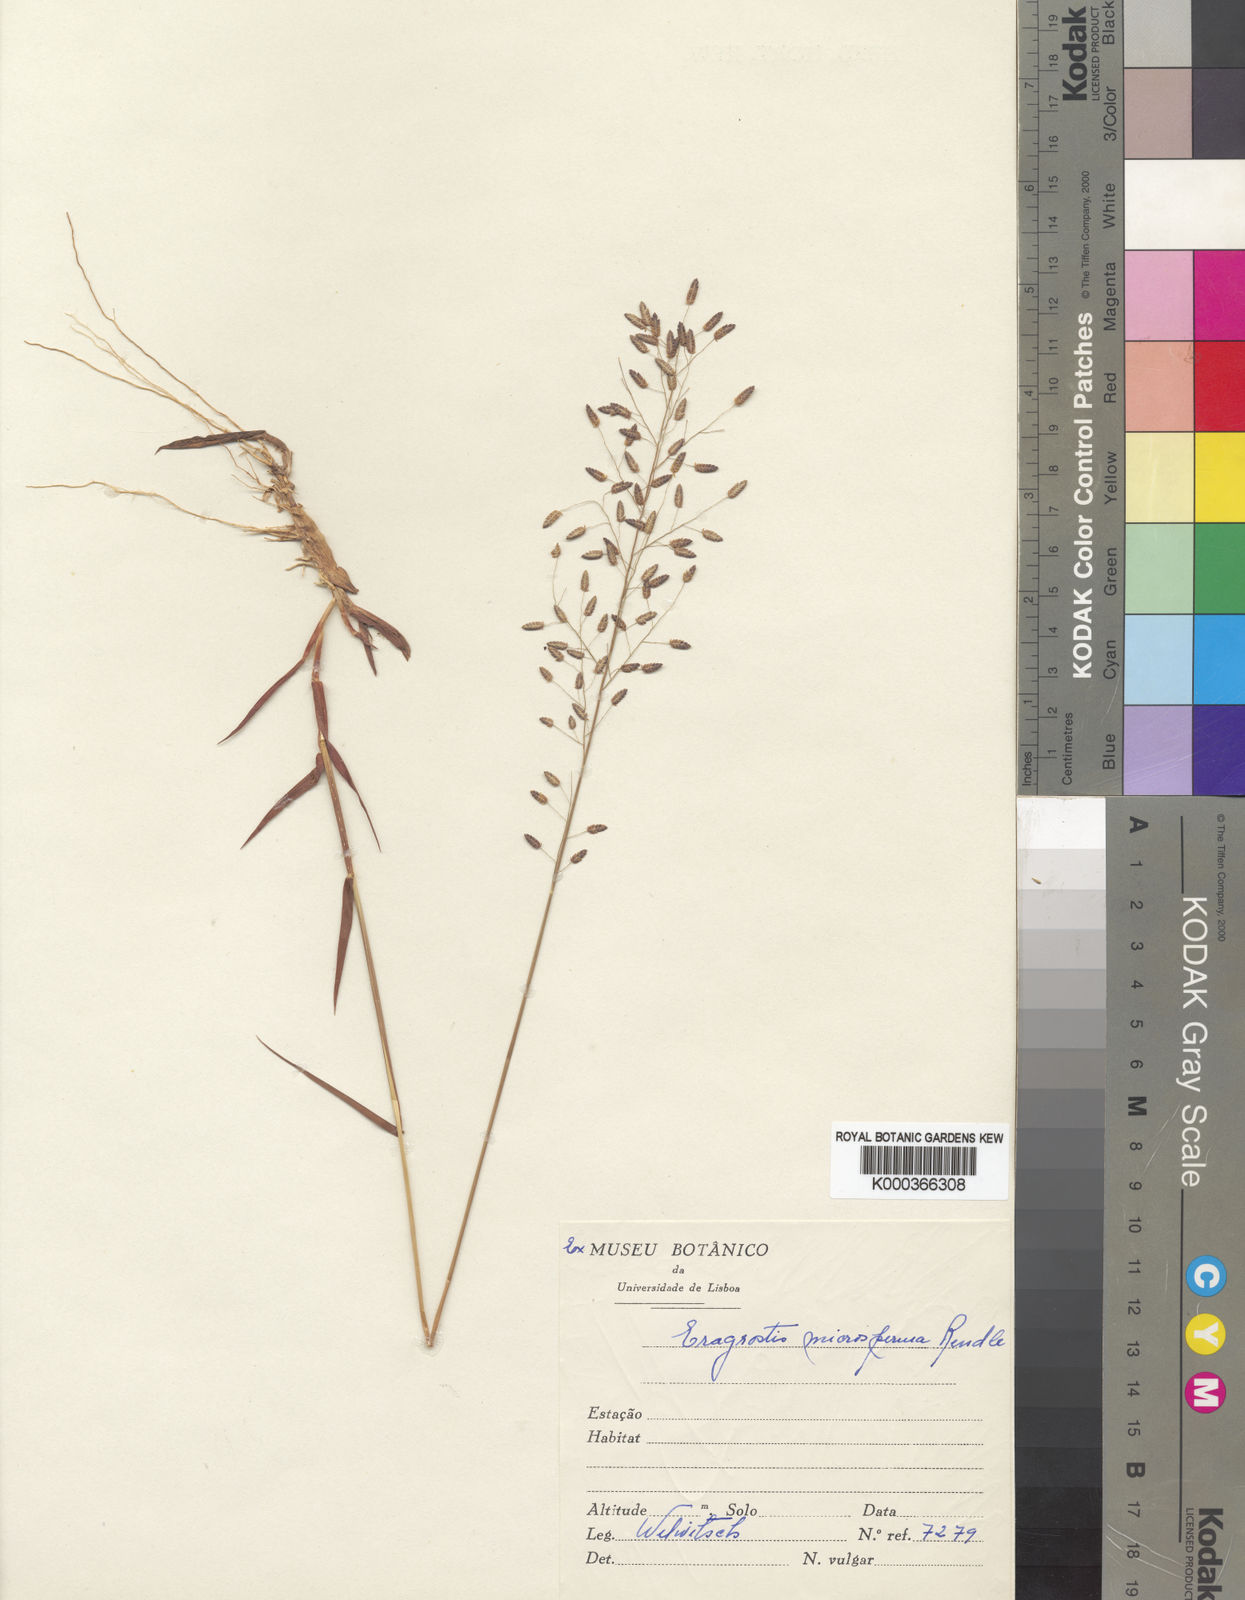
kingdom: Plantae
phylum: Tracheophyta
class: Liliopsida
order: Poales
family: Poaceae
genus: Eragrostis
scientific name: Eragrostis microsperma
